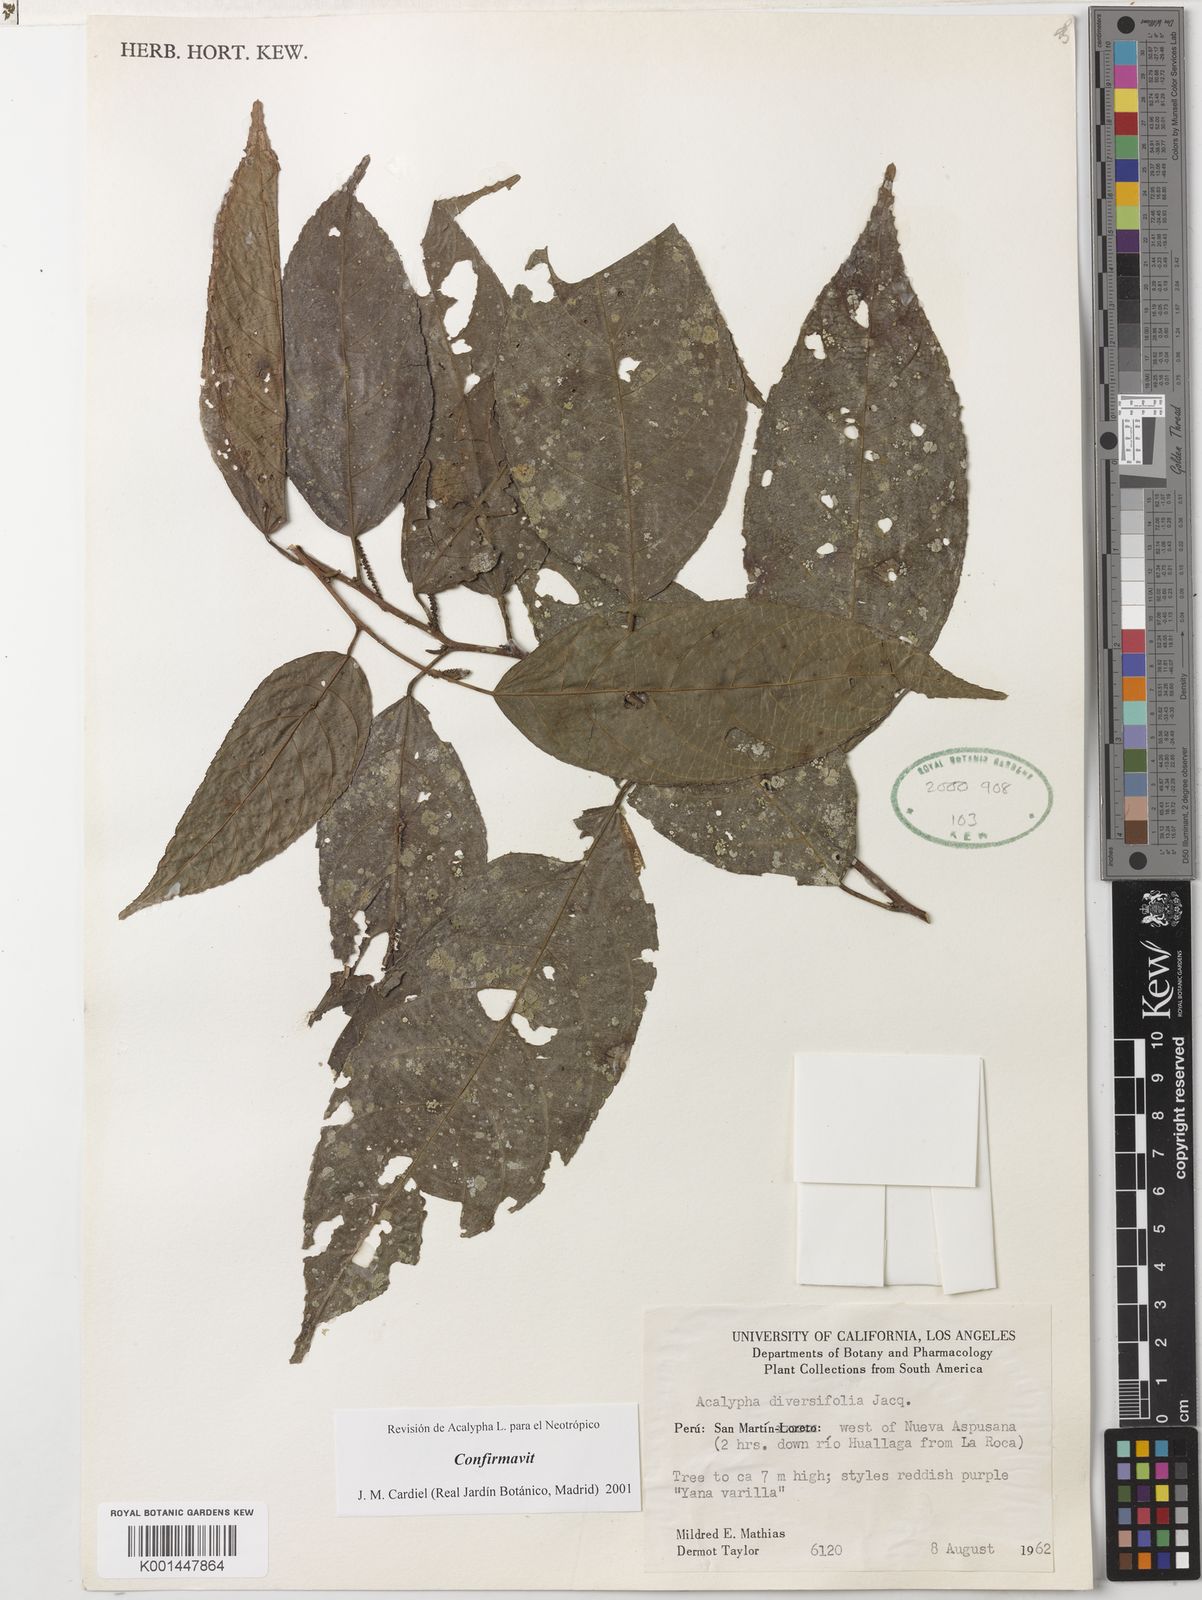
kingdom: Plantae
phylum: Tracheophyta
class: Magnoliopsida
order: Malpighiales
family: Euphorbiaceae
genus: Acalypha
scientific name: Acalypha diversifolia
